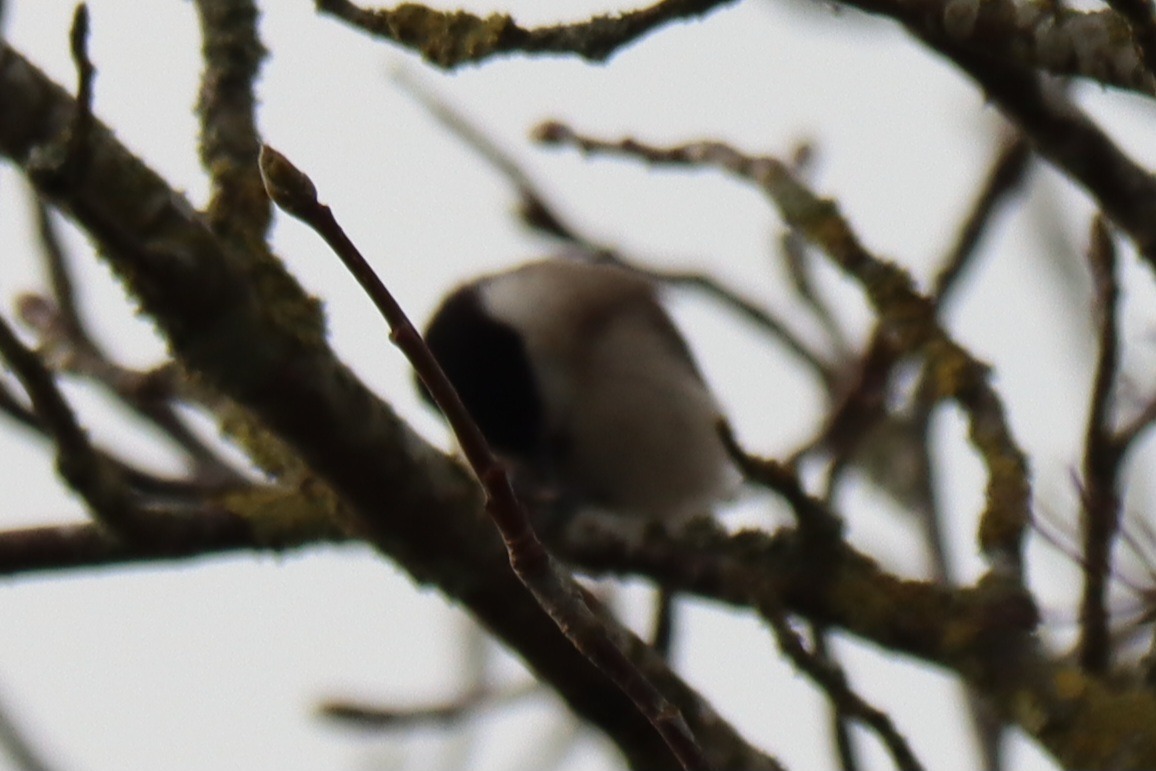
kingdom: Animalia
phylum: Chordata
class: Aves
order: Passeriformes
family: Paridae
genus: Poecile
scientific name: Poecile palustris
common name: Sumpmejse
